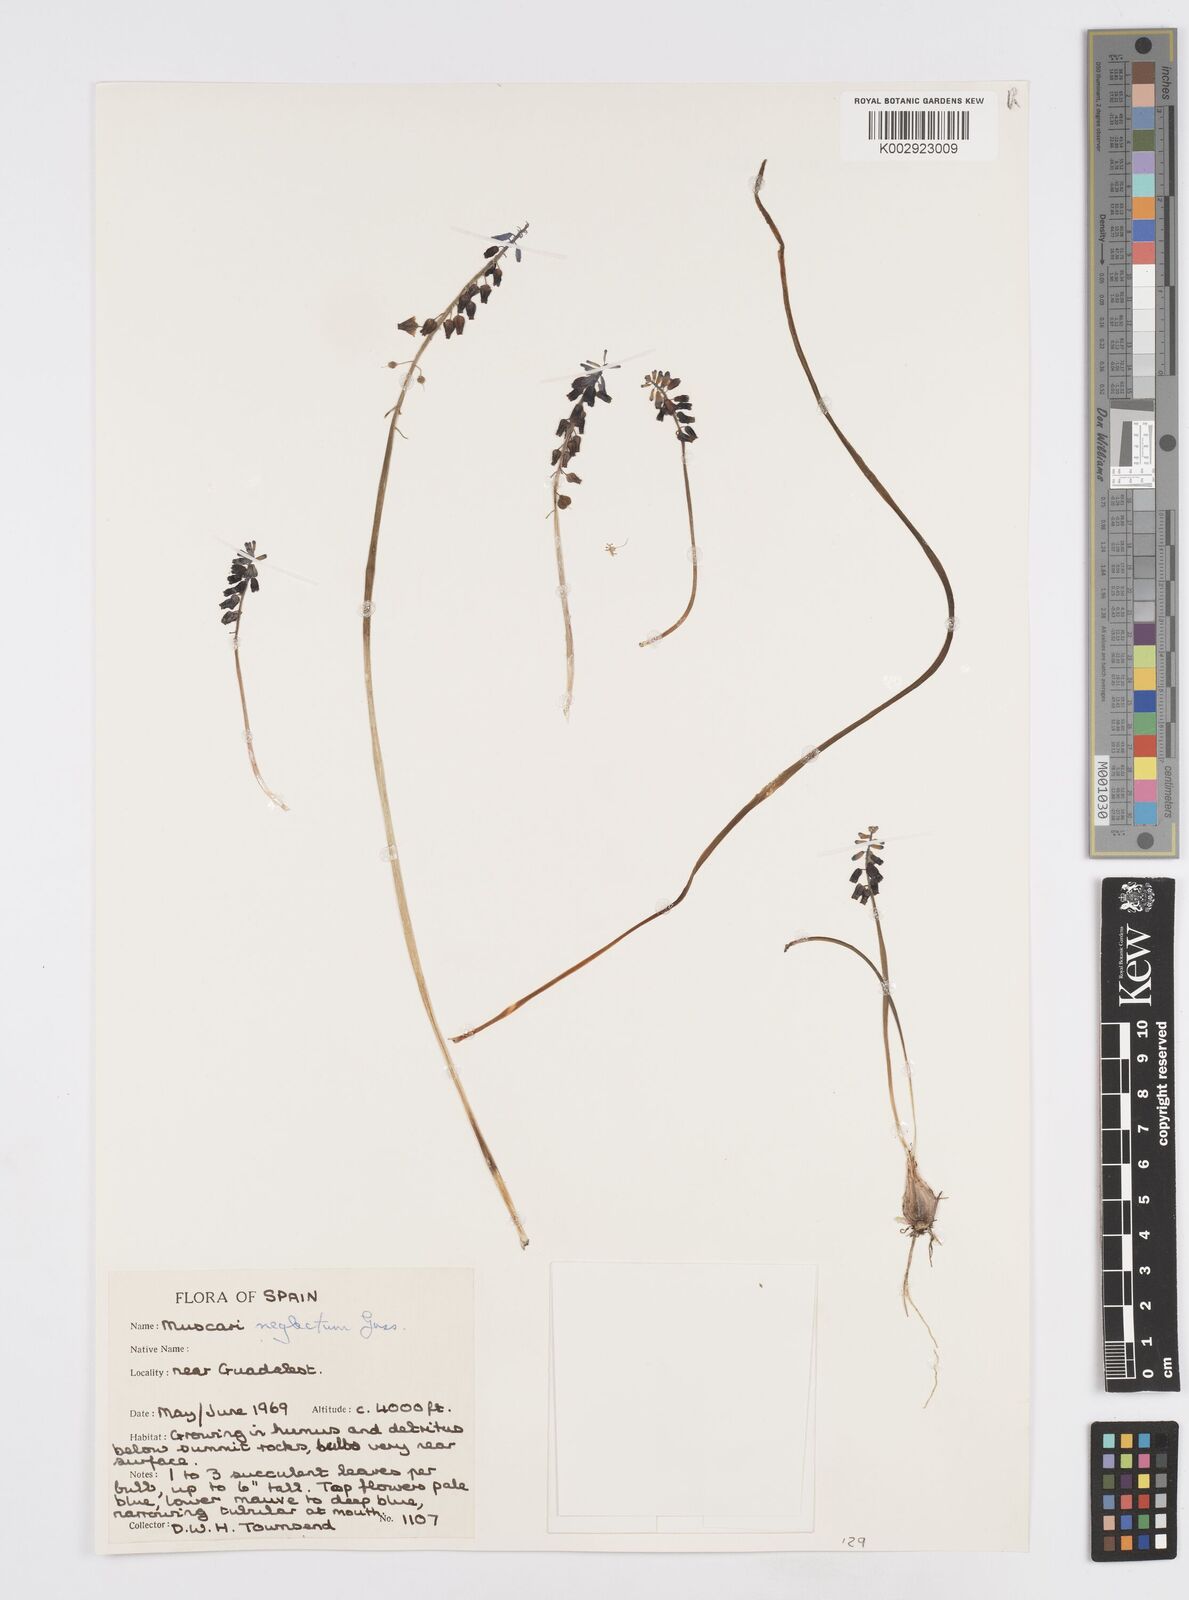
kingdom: Plantae
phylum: Tracheophyta
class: Liliopsida
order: Asparagales
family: Asparagaceae
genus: Muscari
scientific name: Muscari neglectum
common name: Grape-hyacinth
